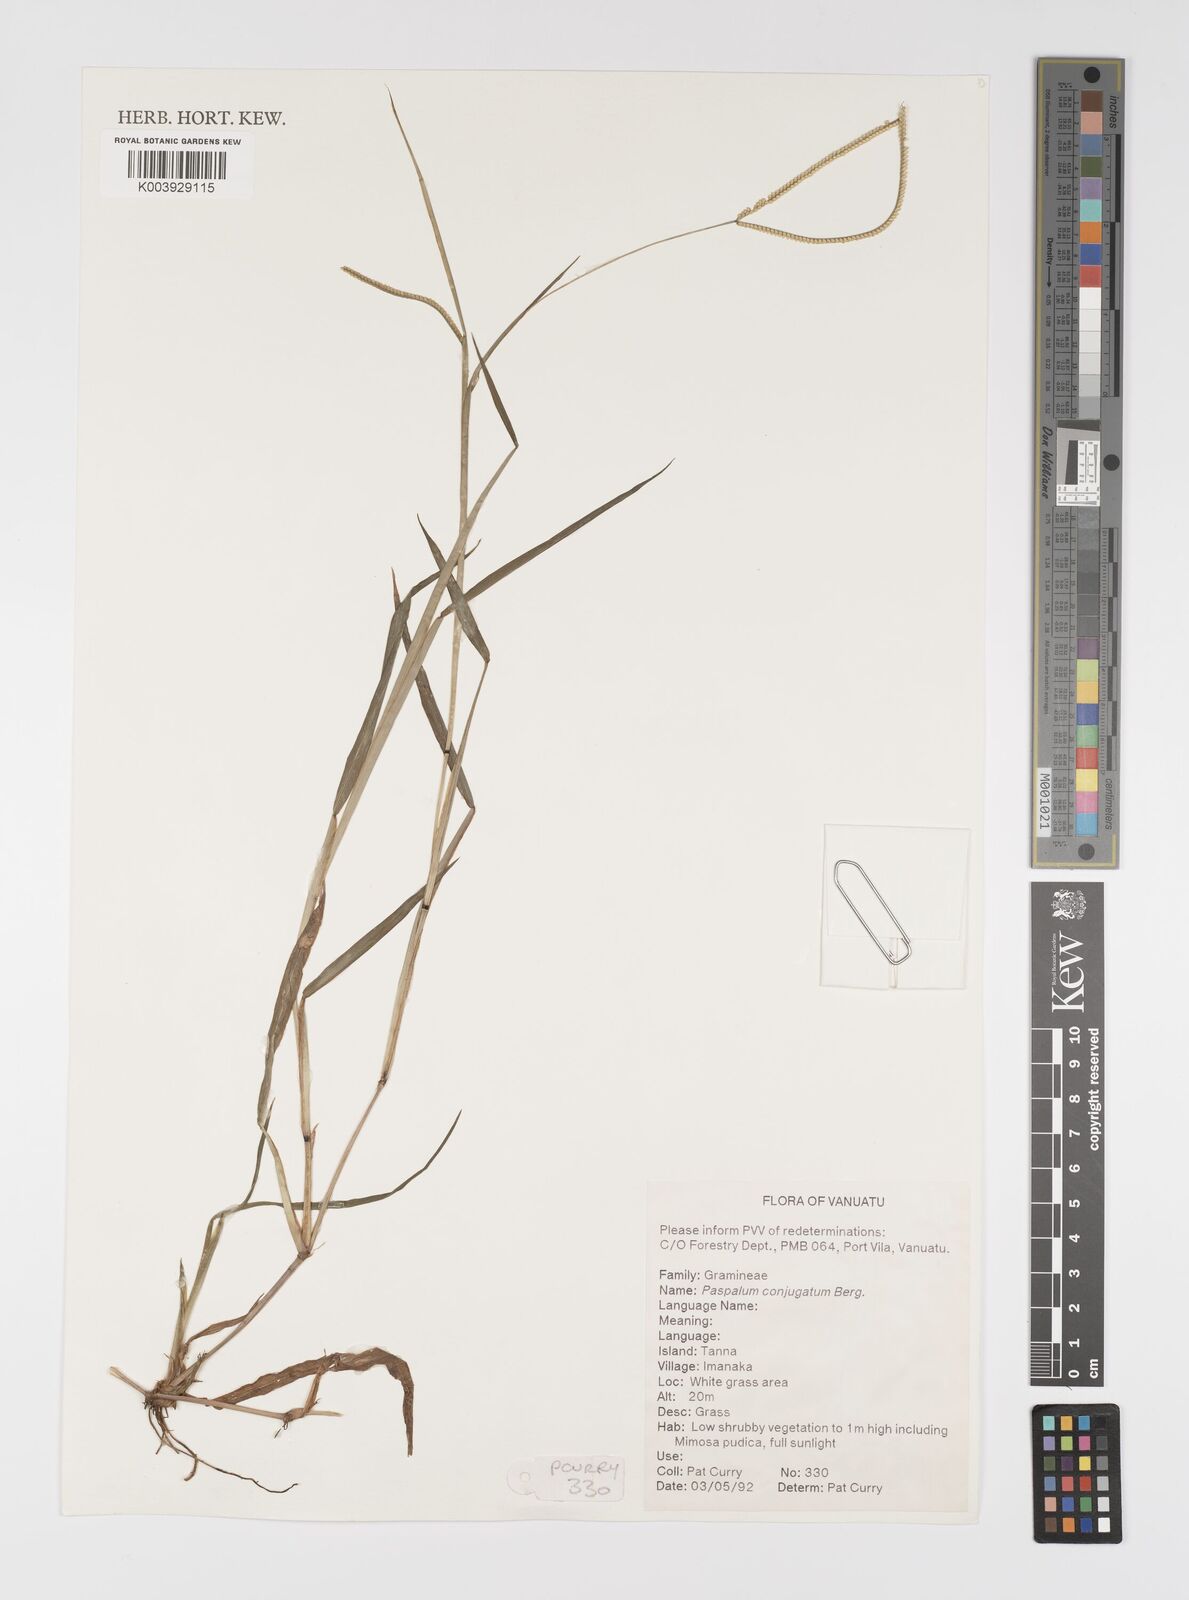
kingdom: Plantae
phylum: Tracheophyta
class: Liliopsida
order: Poales
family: Poaceae
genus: Paspalum
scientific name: Paspalum conjugatum
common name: Hilograss
